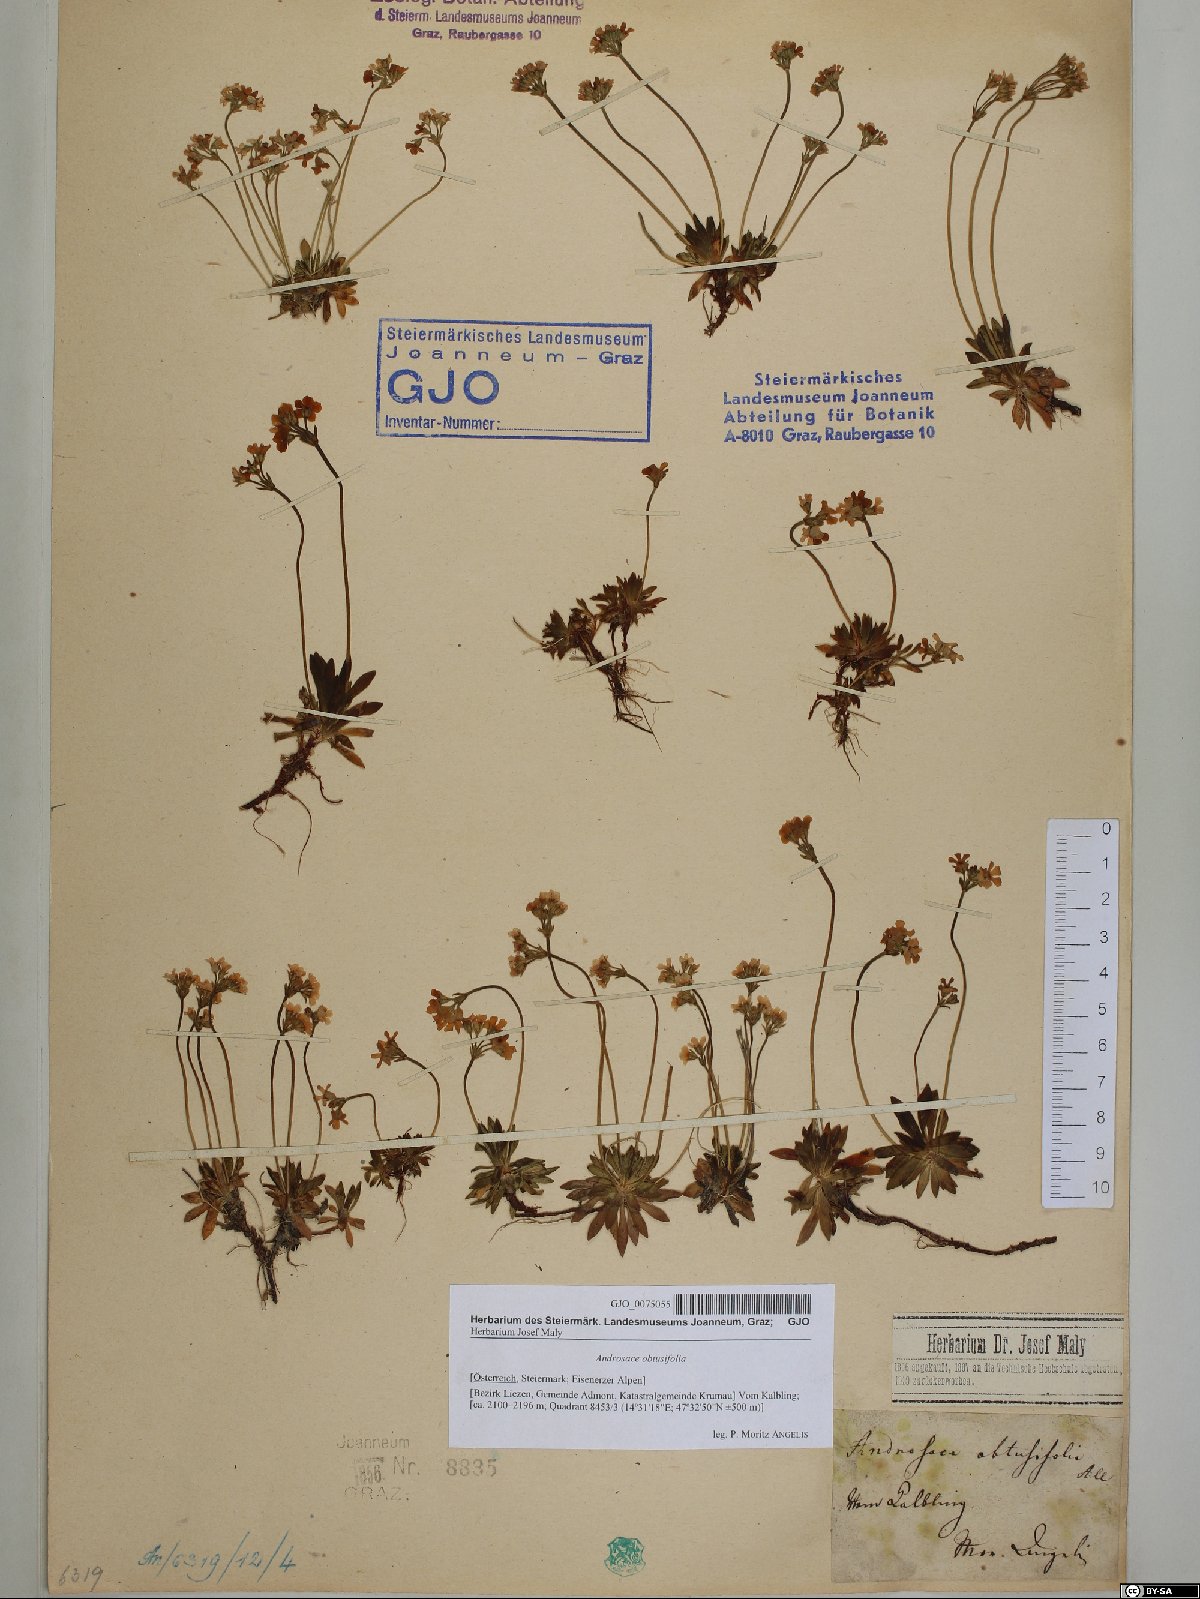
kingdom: Plantae
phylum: Tracheophyta
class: Magnoliopsida
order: Ericales
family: Primulaceae
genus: Androsace
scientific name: Androsace obtusifolia
